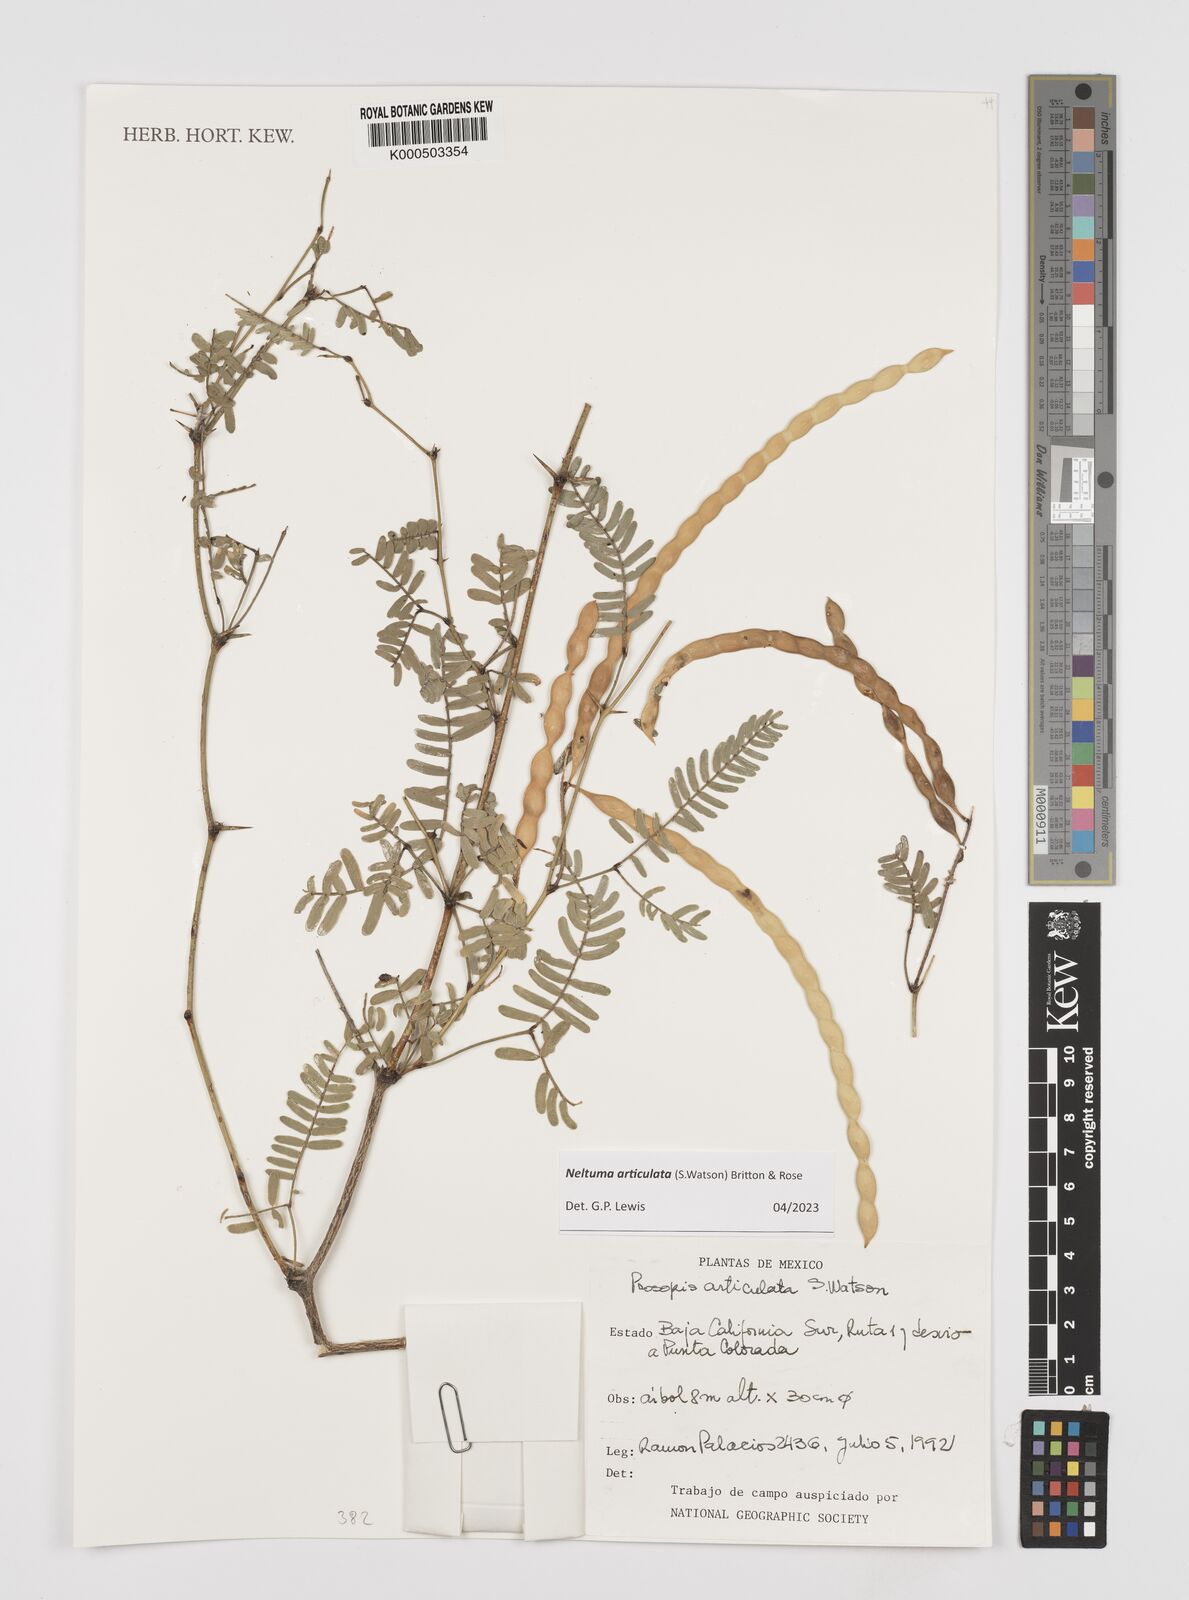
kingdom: Plantae
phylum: Tracheophyta
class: Magnoliopsida
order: Fabales
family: Fabaceae
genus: Prosopis
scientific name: Prosopis articulata
